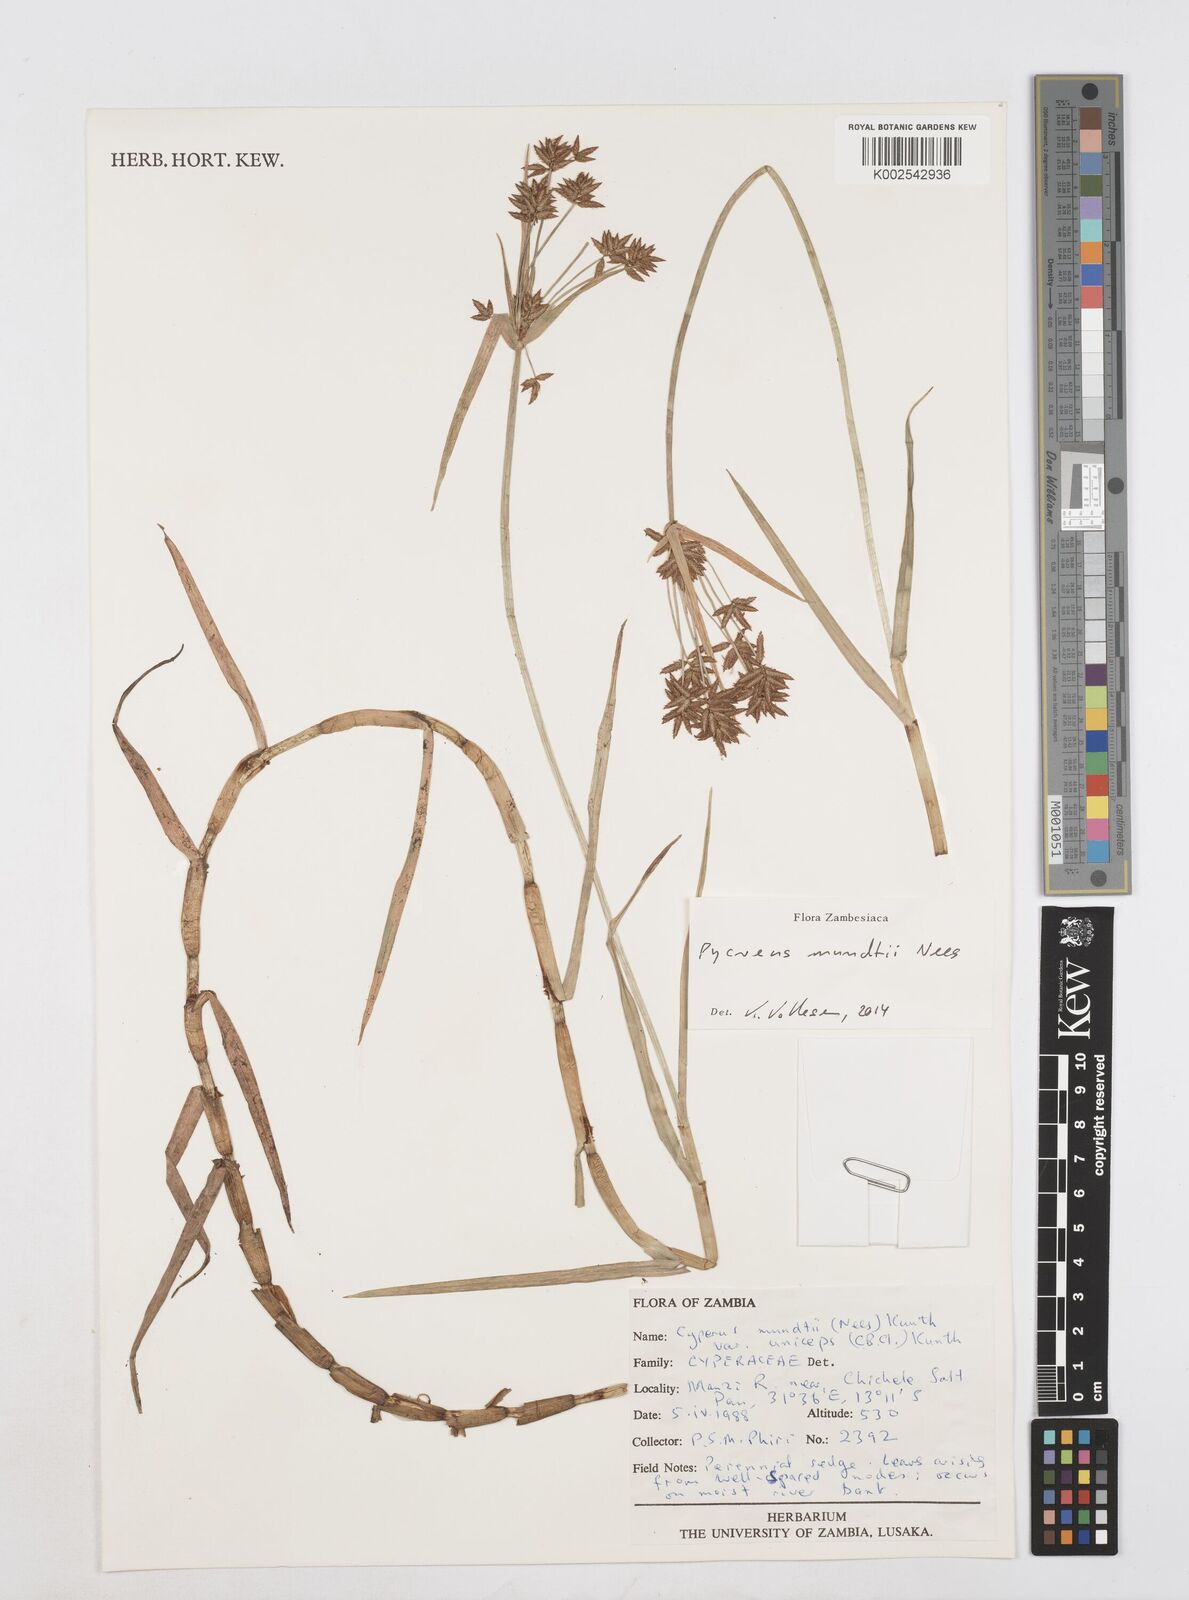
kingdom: Plantae
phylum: Tracheophyta
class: Liliopsida
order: Poales
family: Cyperaceae
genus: Cyperus
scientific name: Cyperus mundii
